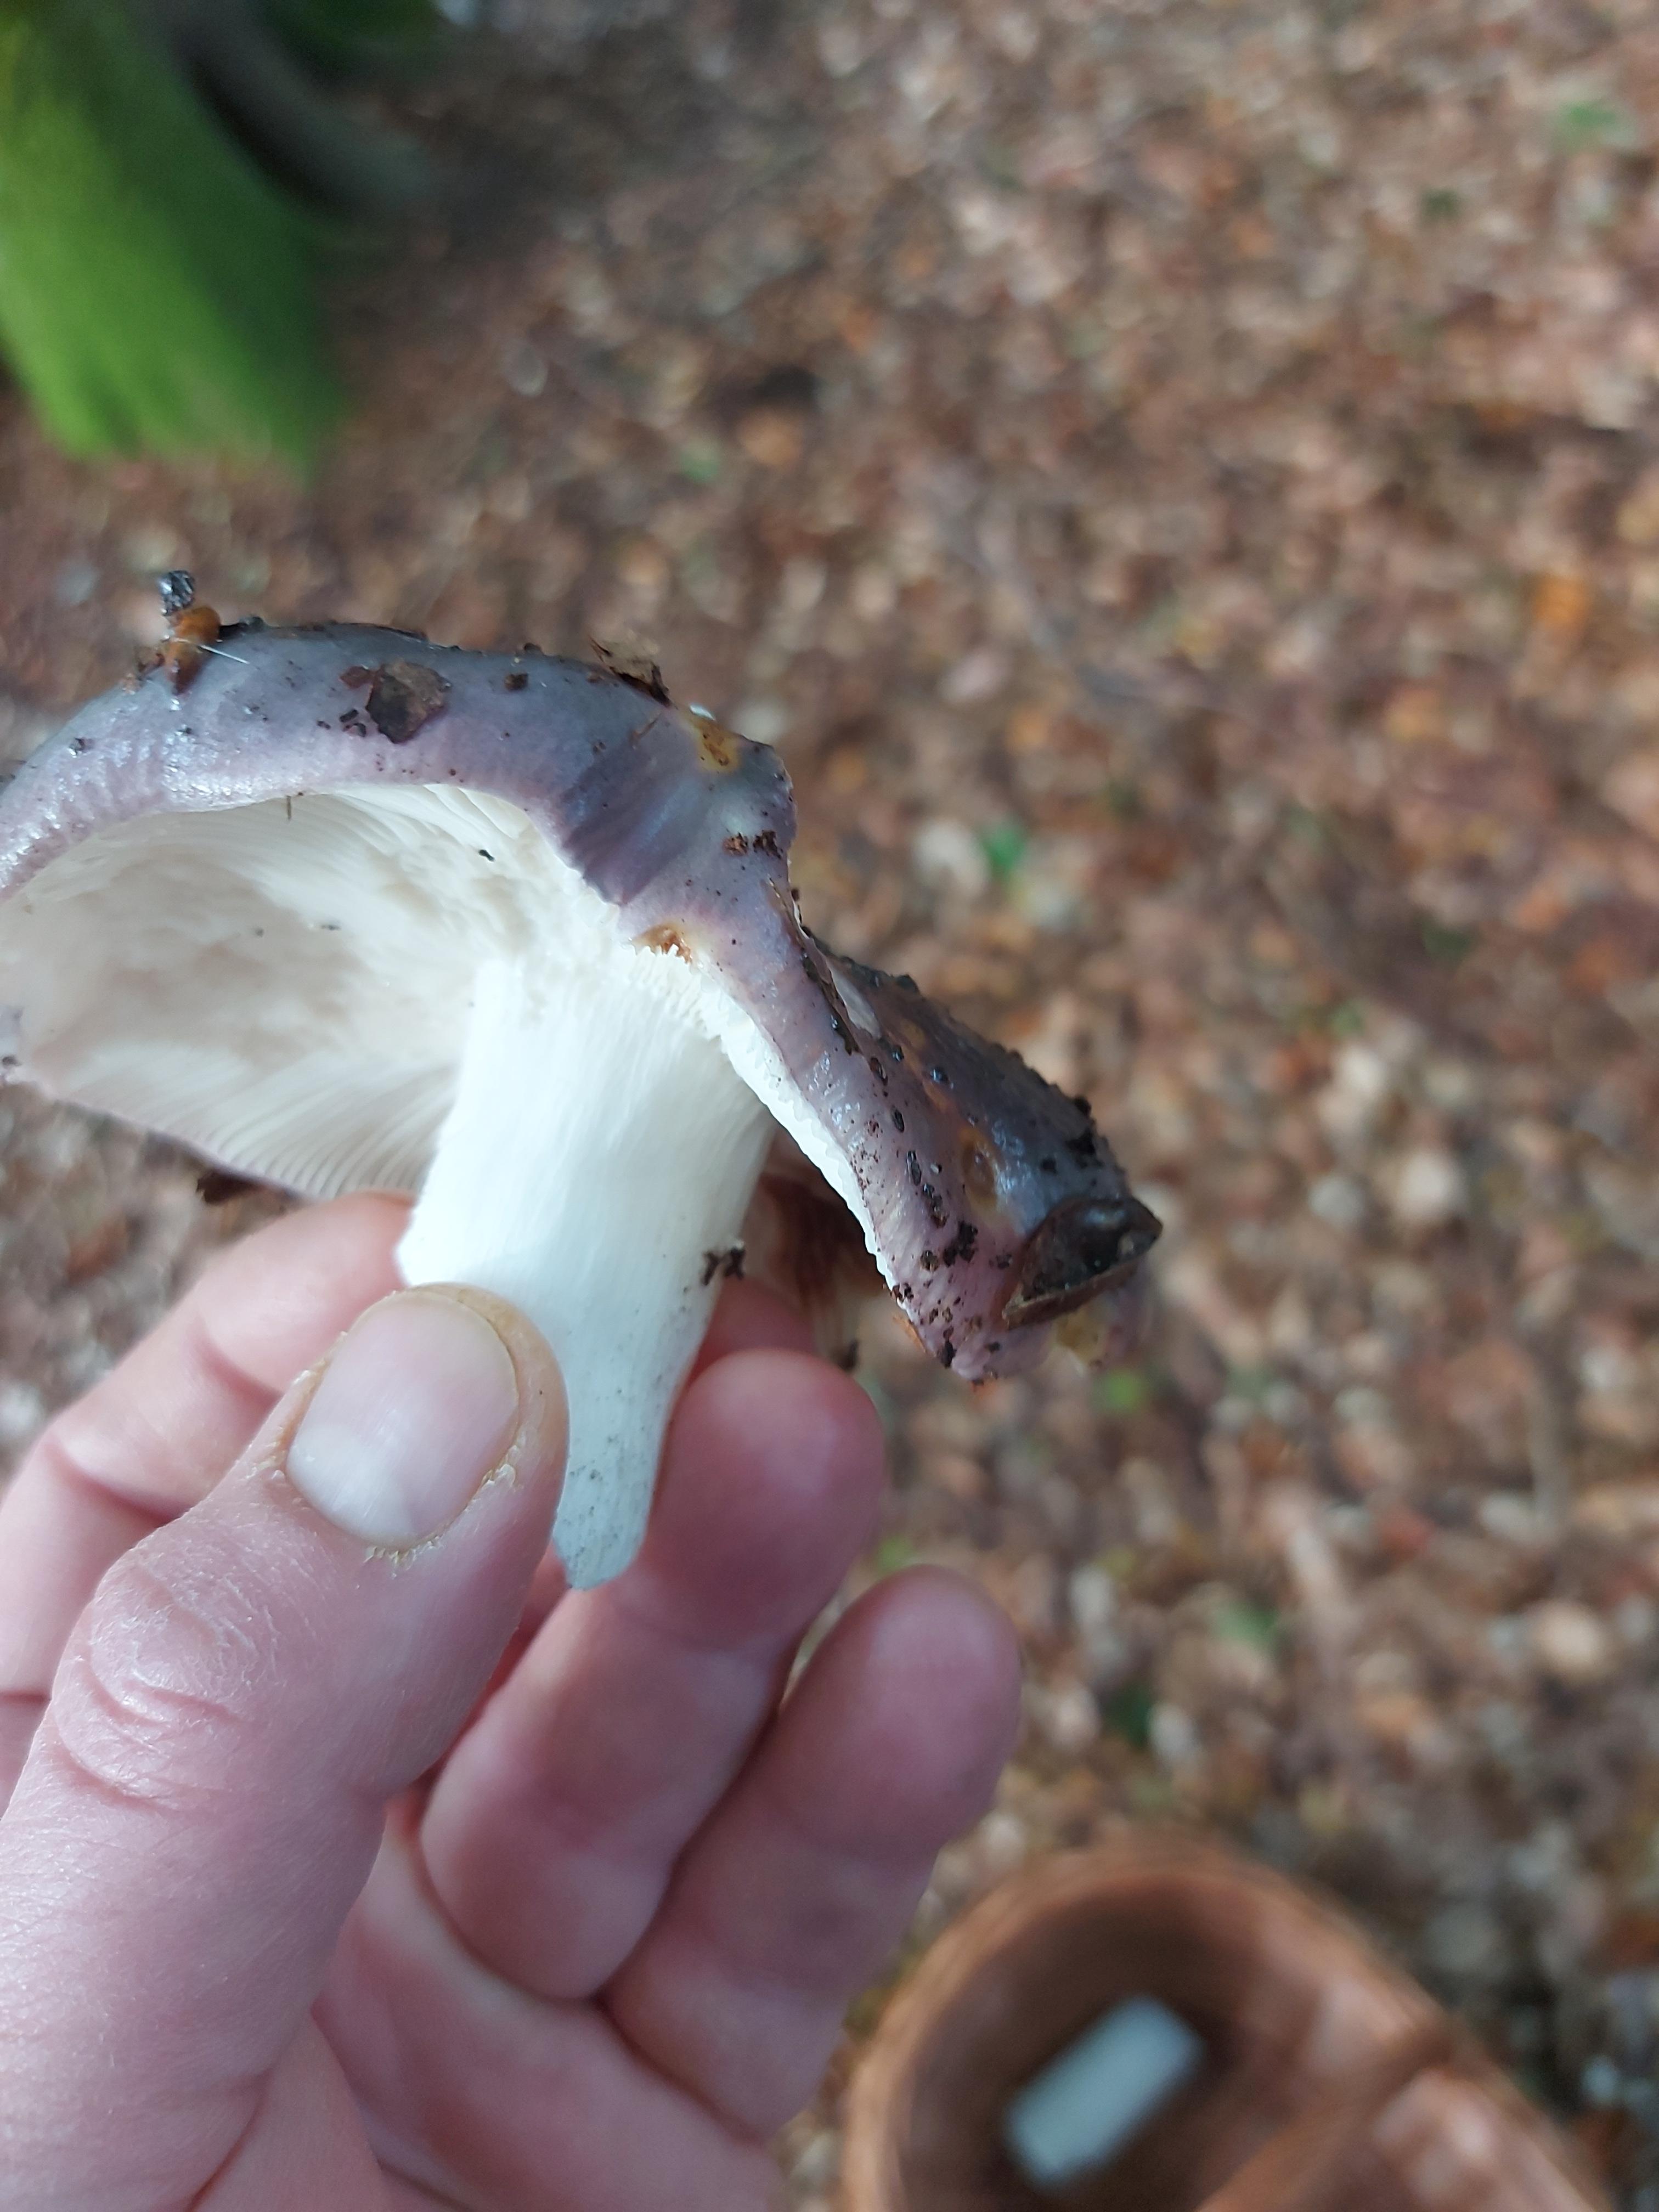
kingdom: Fungi
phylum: Basidiomycota
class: Agaricomycetes
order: Russulales
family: Russulaceae
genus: Russula
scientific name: Russula cyanoxantha
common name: broget skørhat
